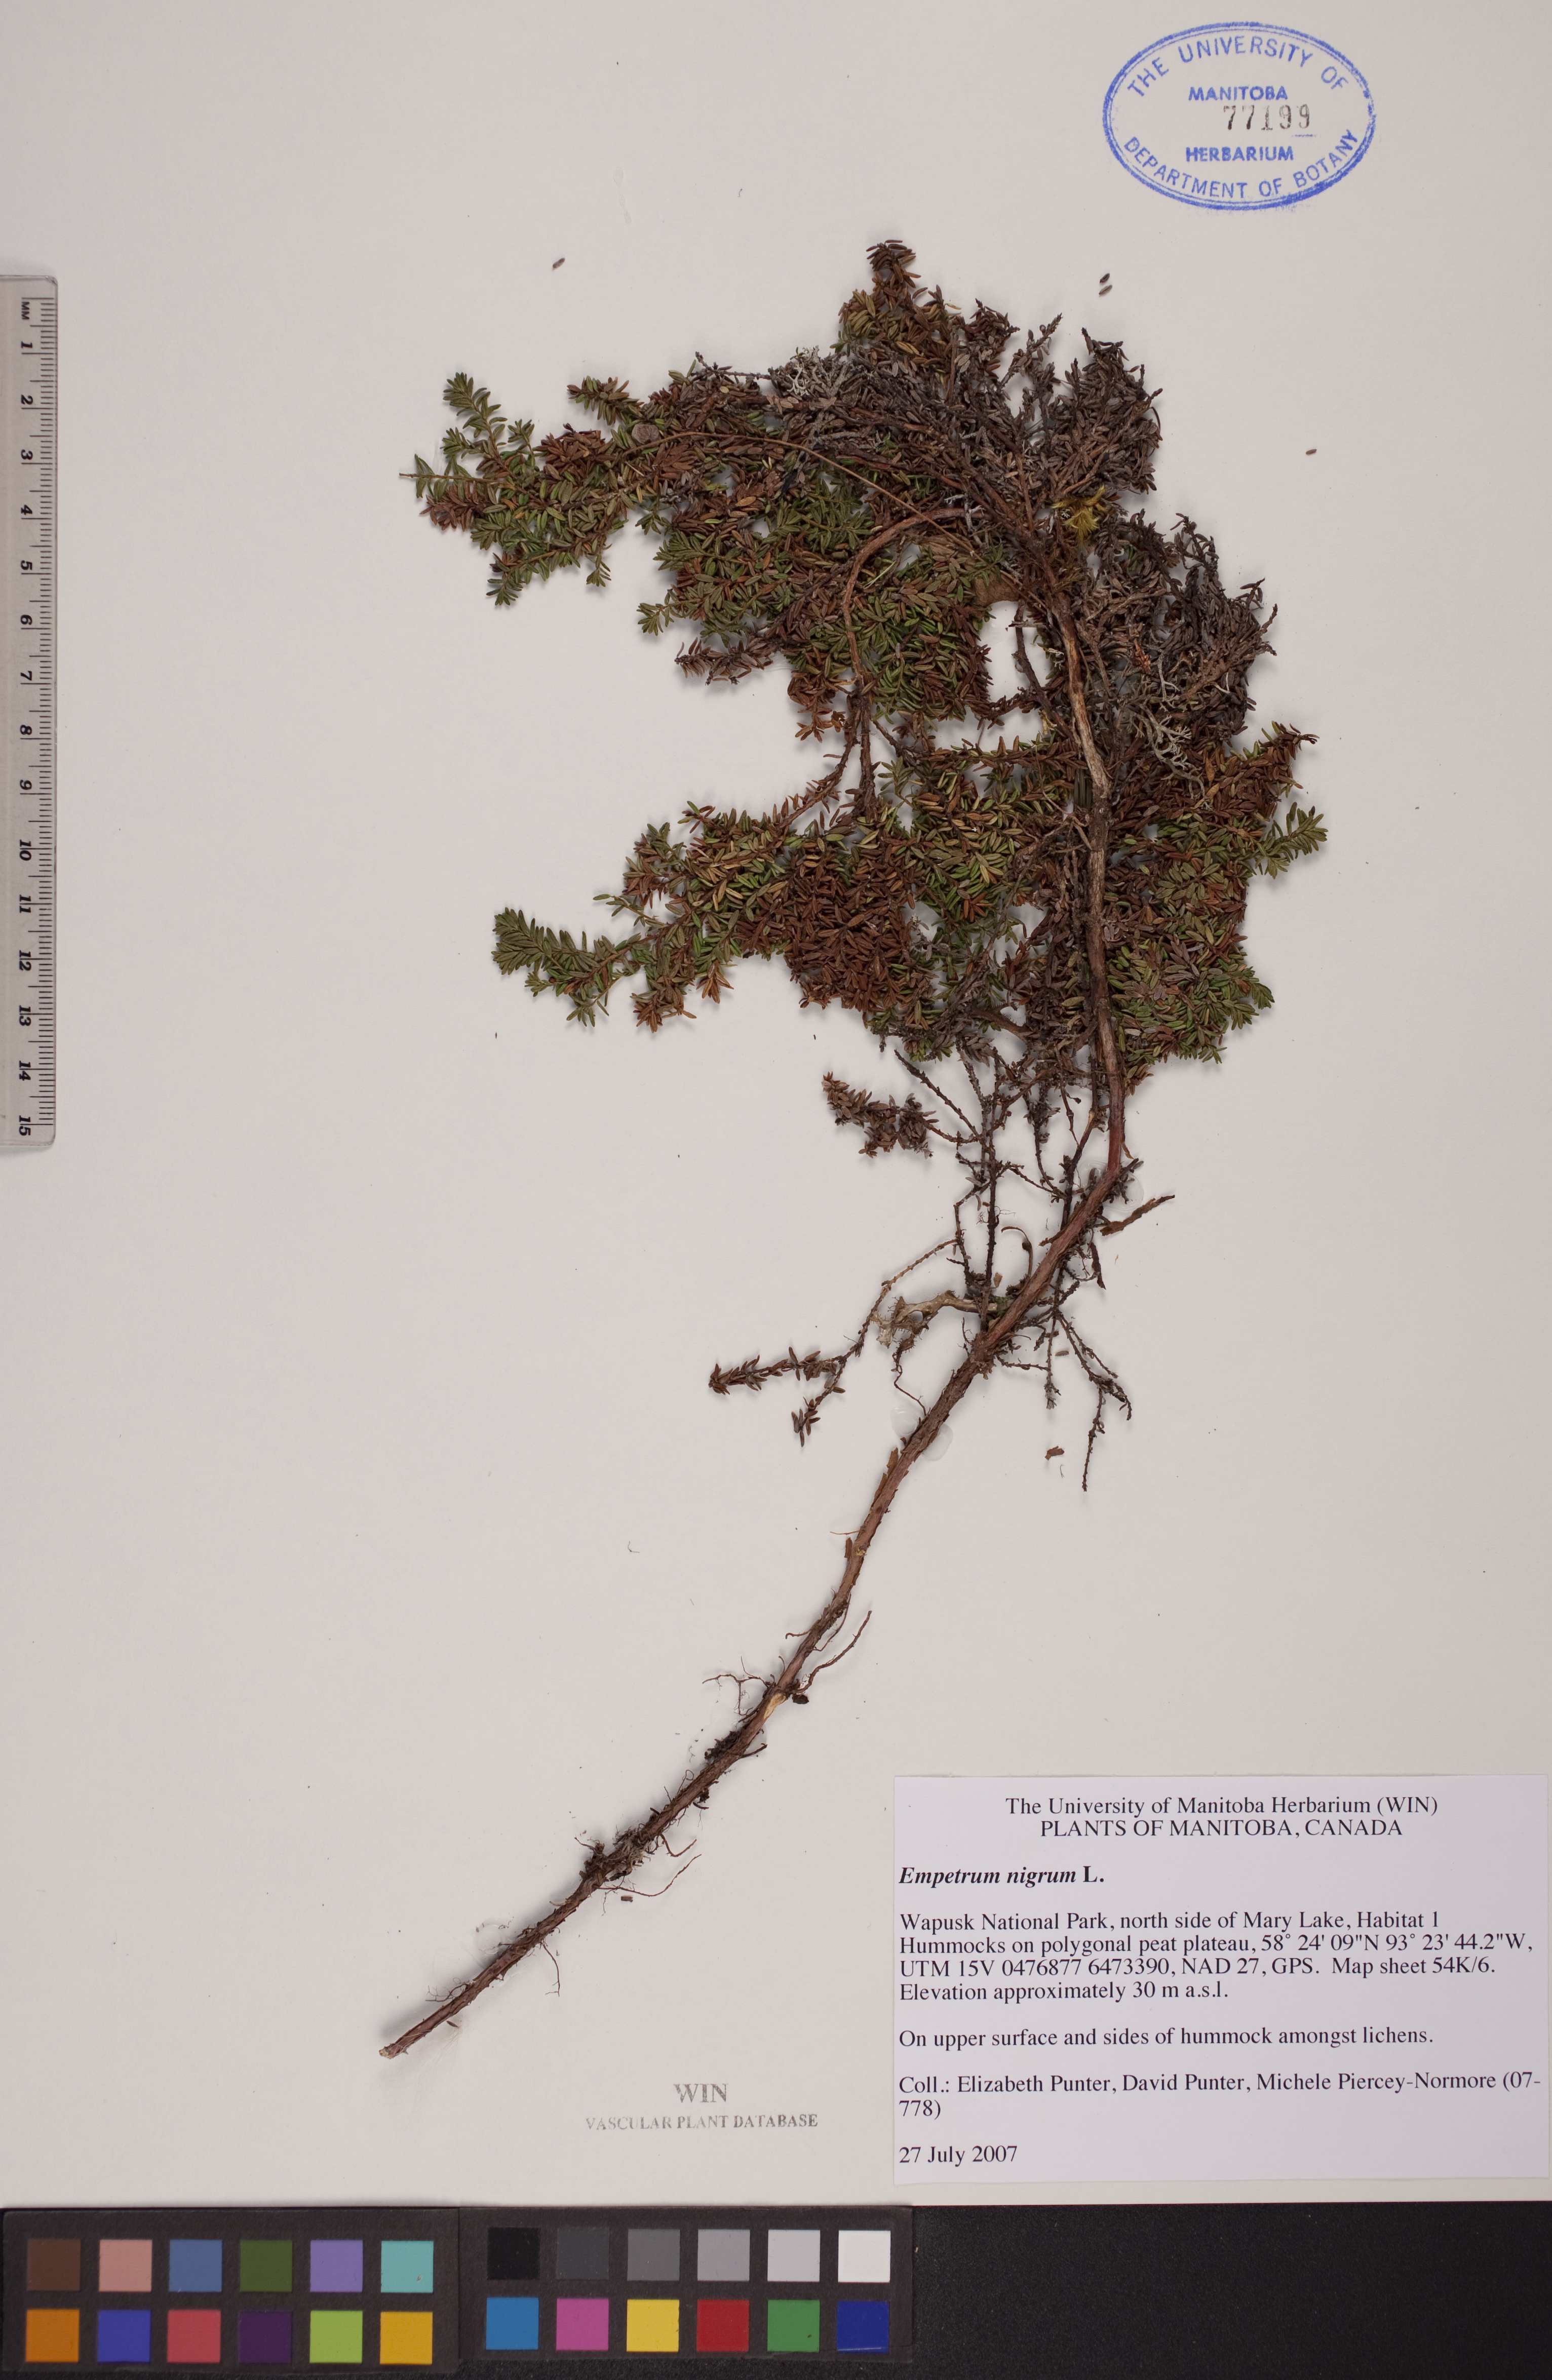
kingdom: Plantae
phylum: Tracheophyta
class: Magnoliopsida
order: Ericales
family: Ericaceae
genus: Empetrum
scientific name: Empetrum nigrum
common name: Black crowberry
